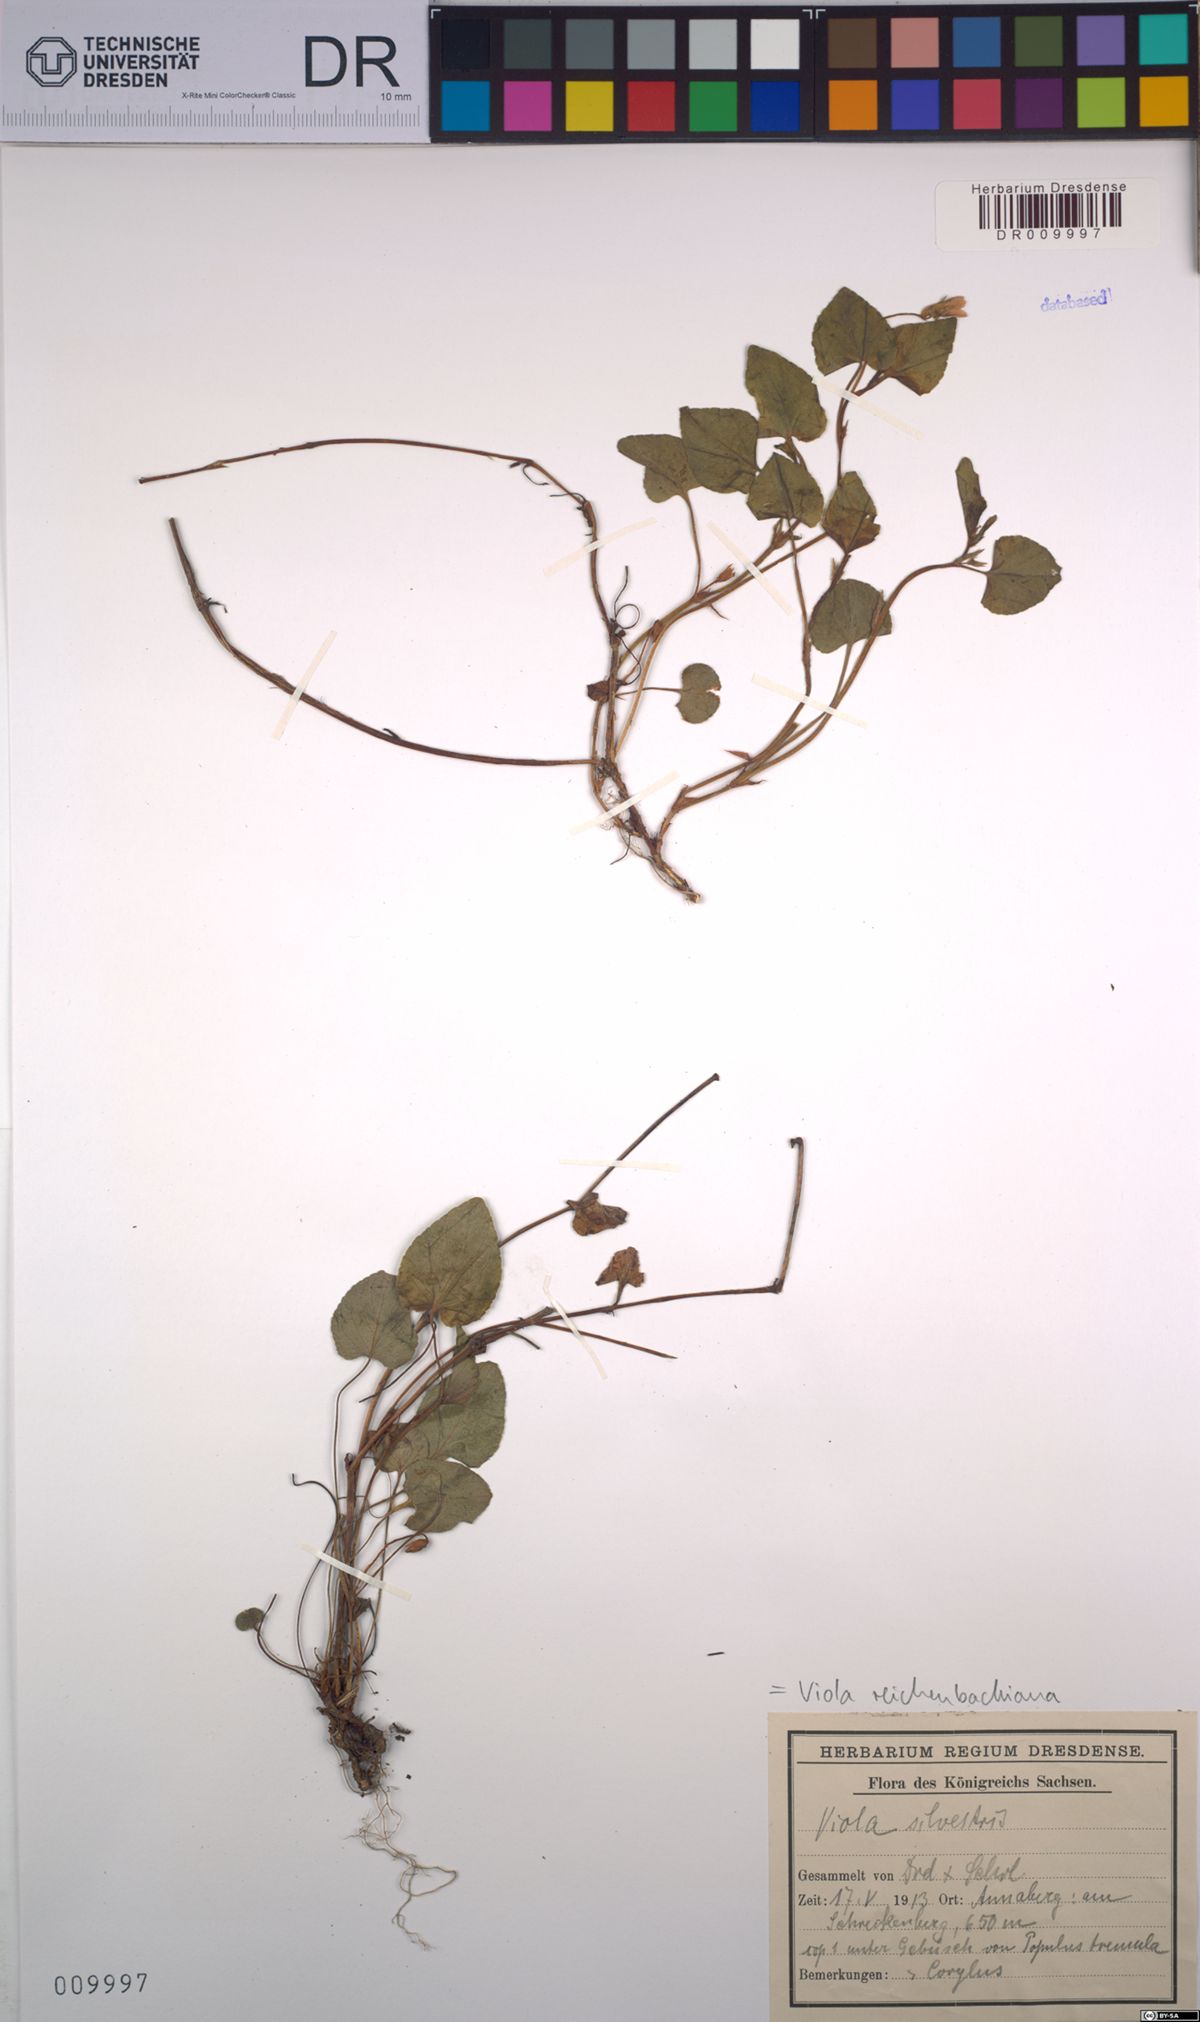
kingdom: Plantae
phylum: Tracheophyta
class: Magnoliopsida
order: Malpighiales
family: Violaceae
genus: Viola
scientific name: Viola reichenbachiana
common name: Early dog-violet
